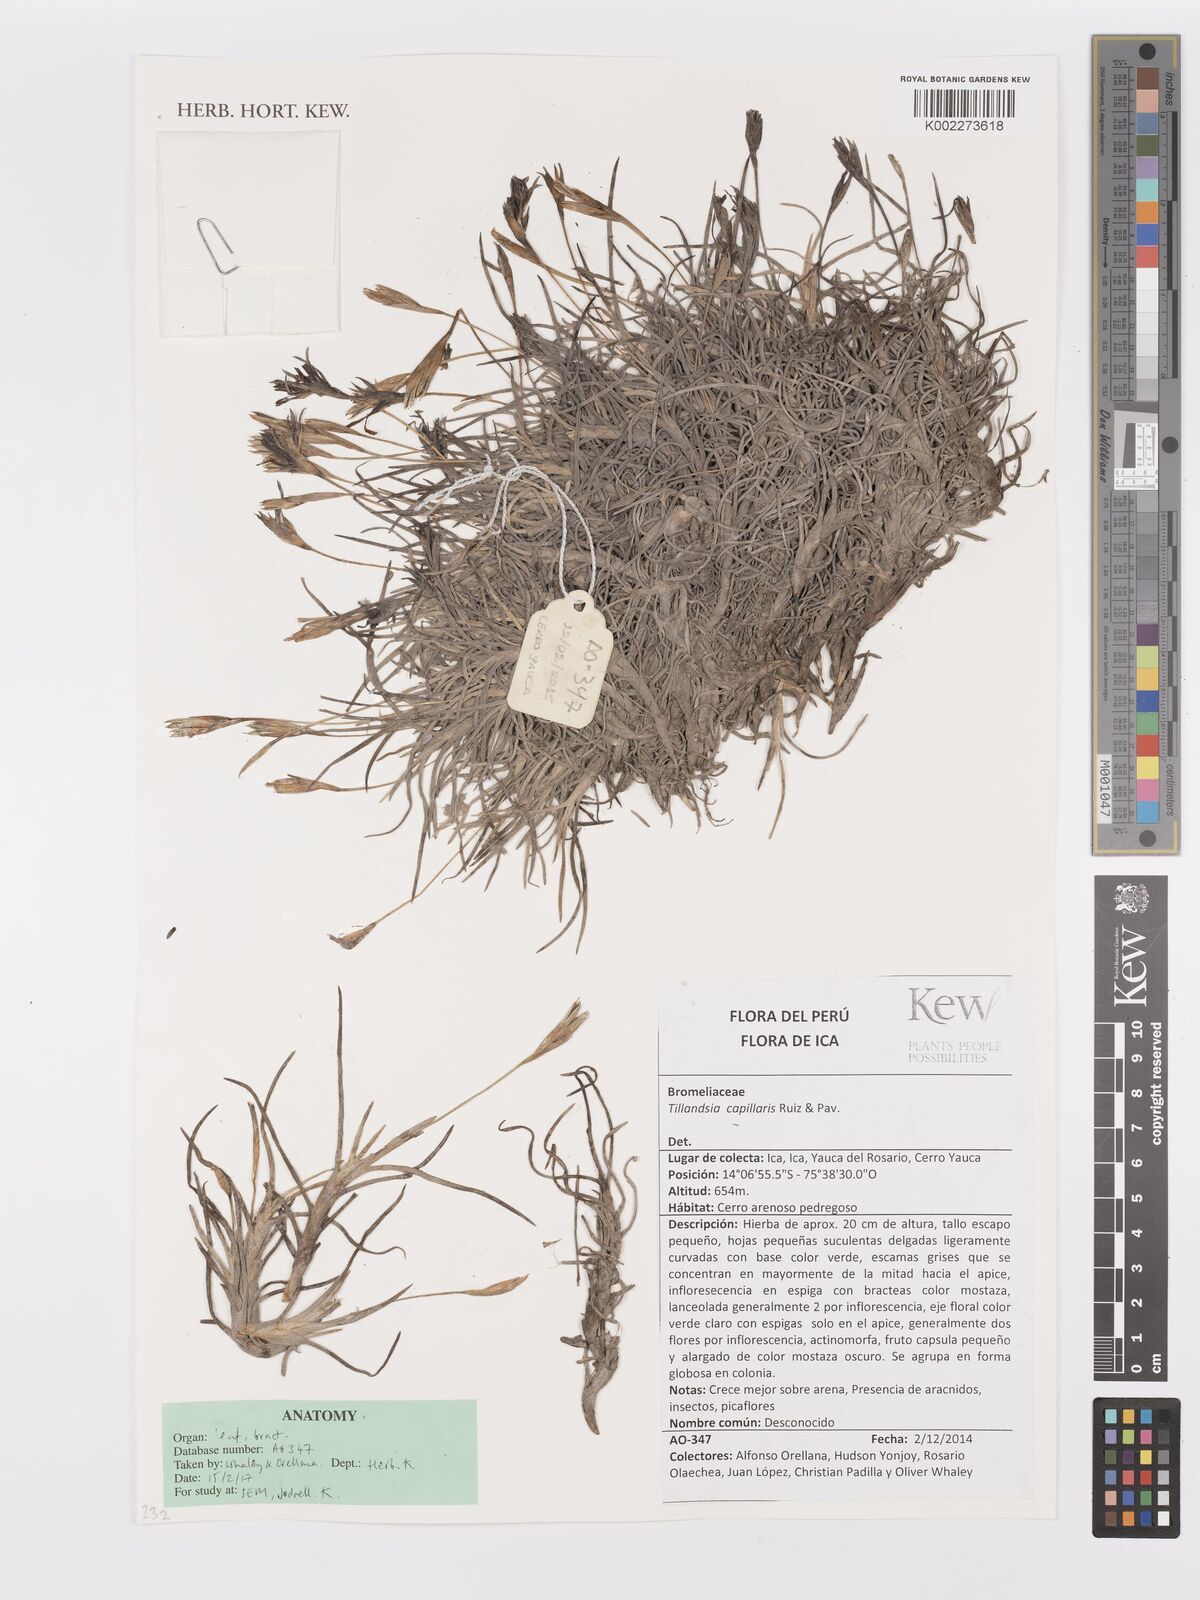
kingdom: Plantae
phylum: Tracheophyta
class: Liliopsida
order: Poales
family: Bromeliaceae
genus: Tillandsia
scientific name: Tillandsia capillaris
